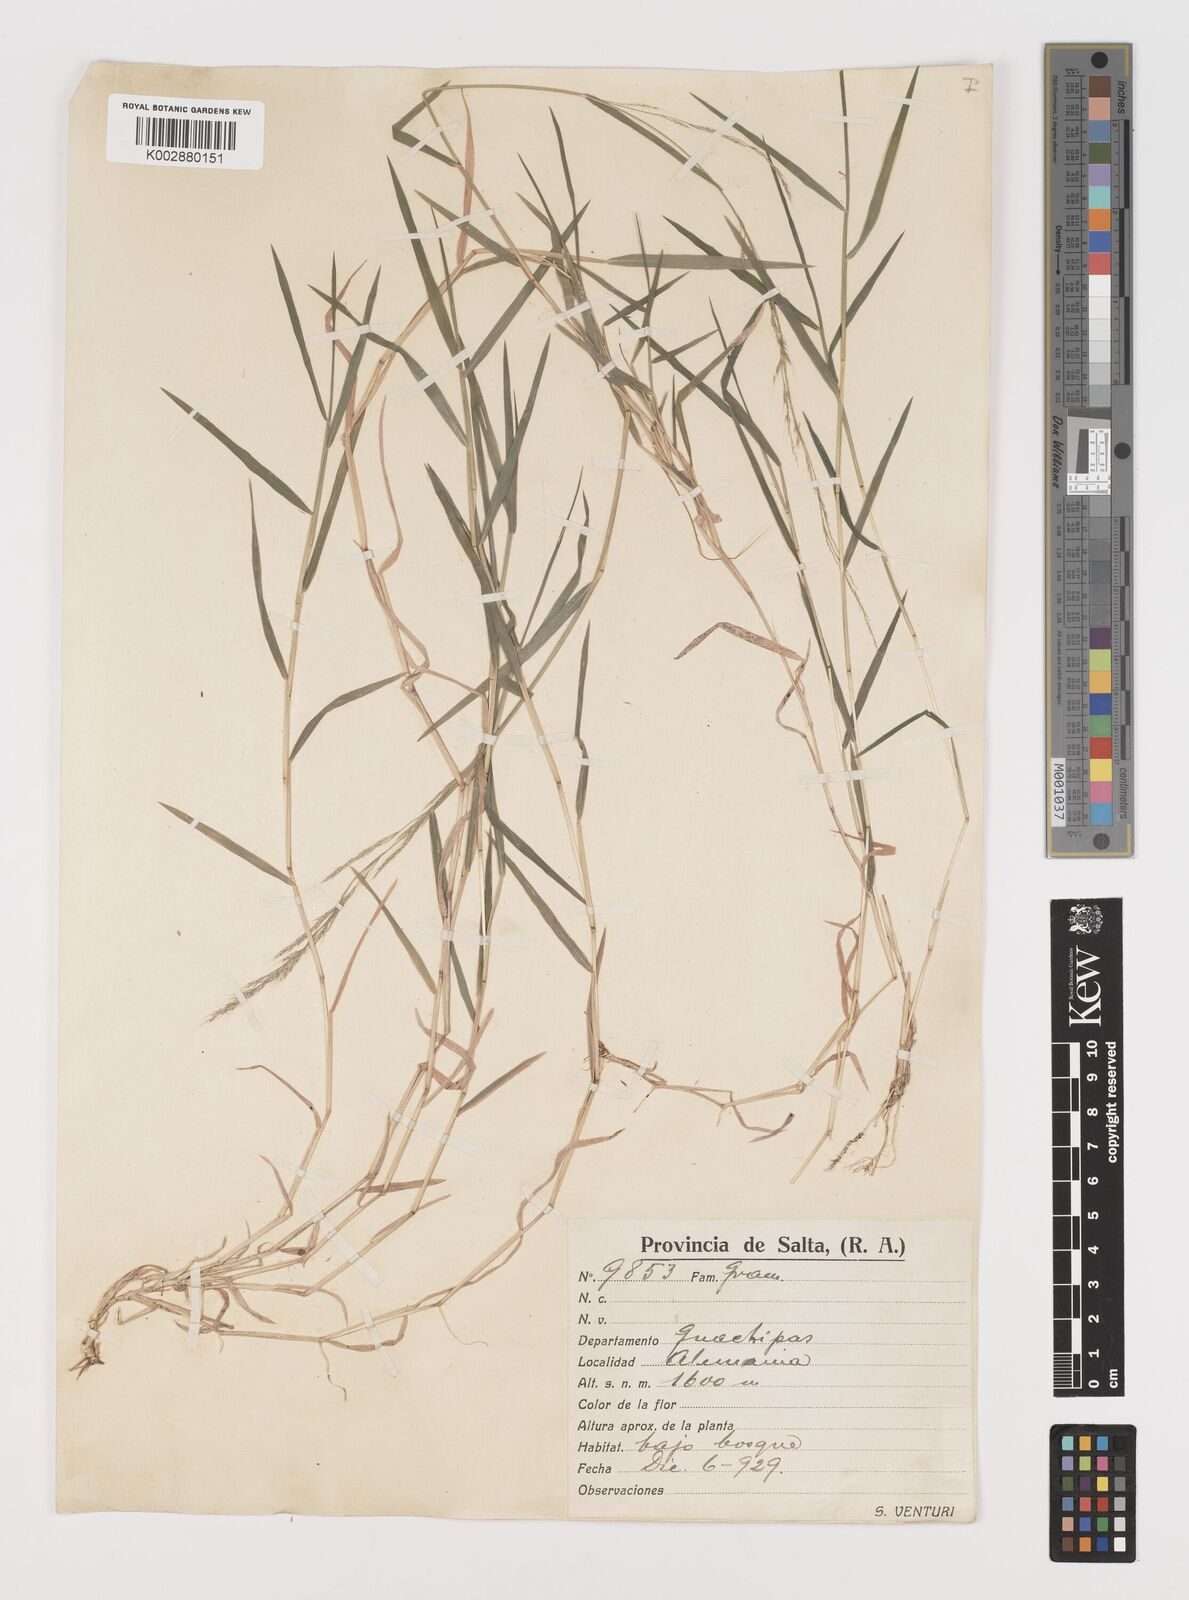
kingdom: Plantae
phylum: Tracheophyta
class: Liliopsida
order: Poales
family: Poaceae
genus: Muhlenbergia
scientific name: Muhlenbergia schreberi
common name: Nimblewill
